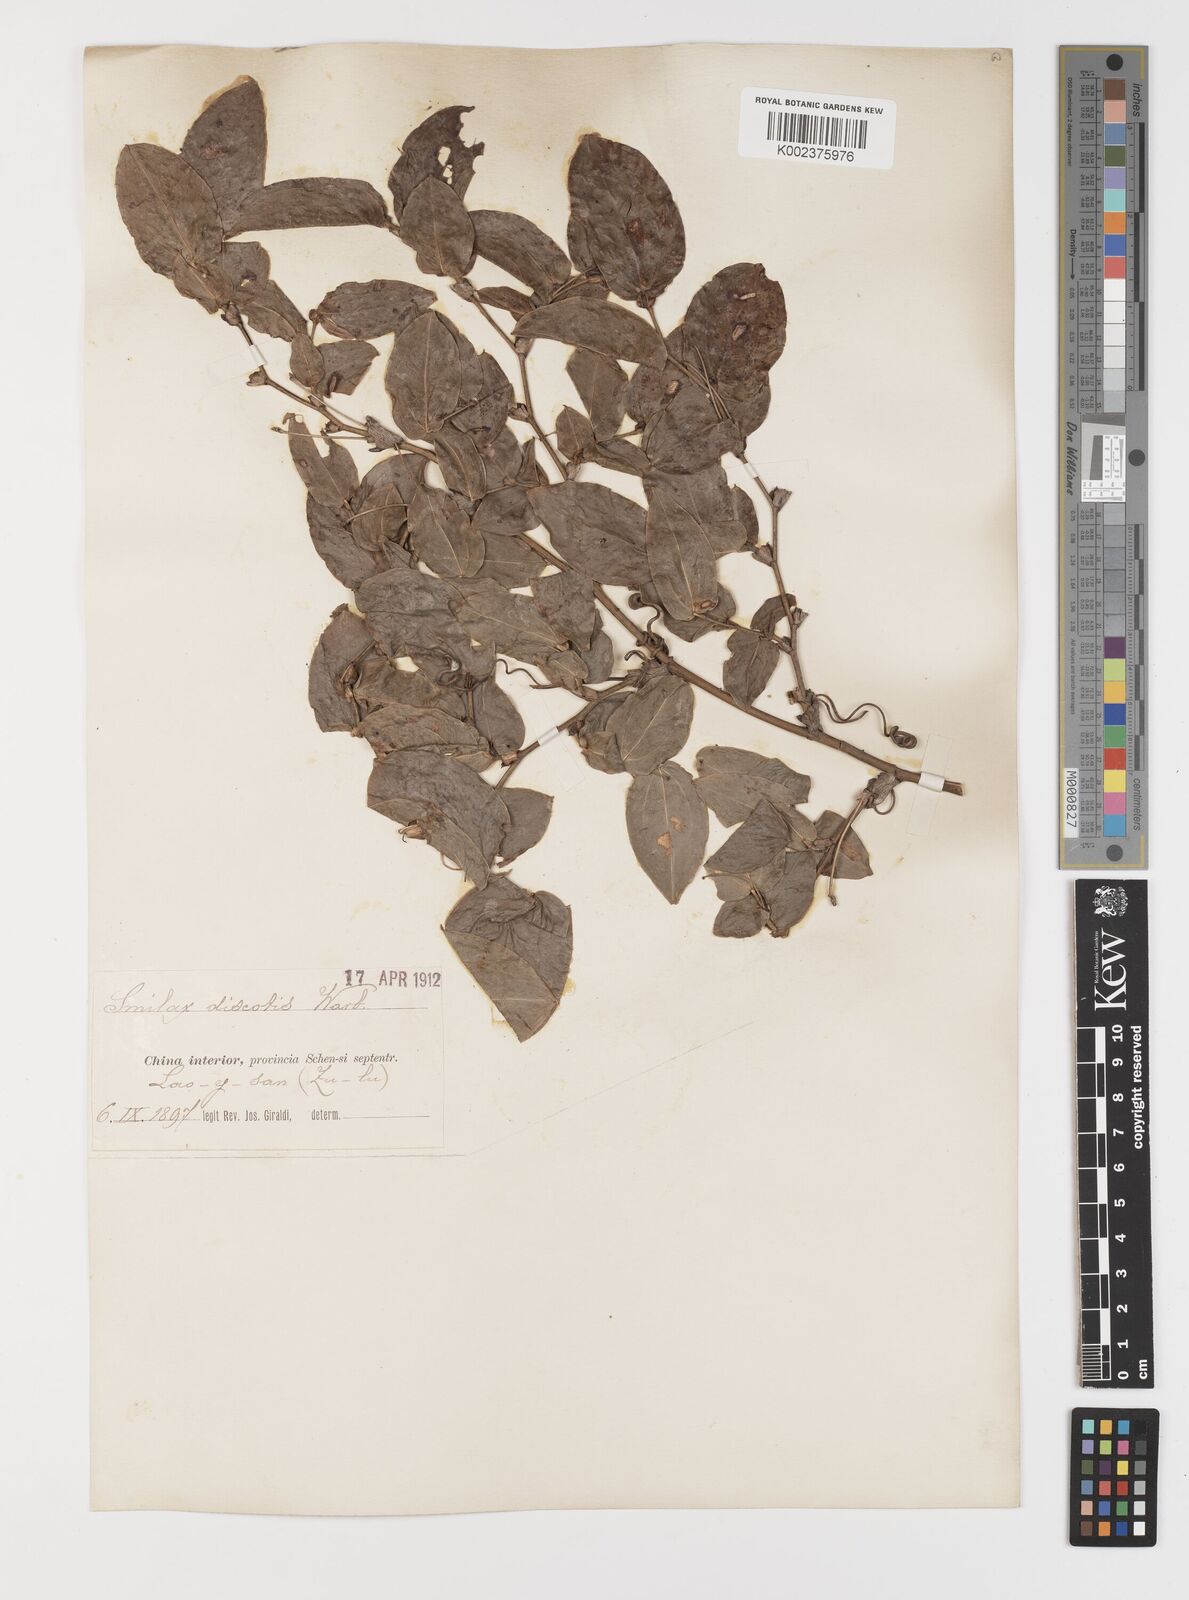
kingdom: Plantae
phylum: Tracheophyta
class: Liliopsida
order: Liliales
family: Smilacaceae
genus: Smilax
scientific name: Smilax discotis
